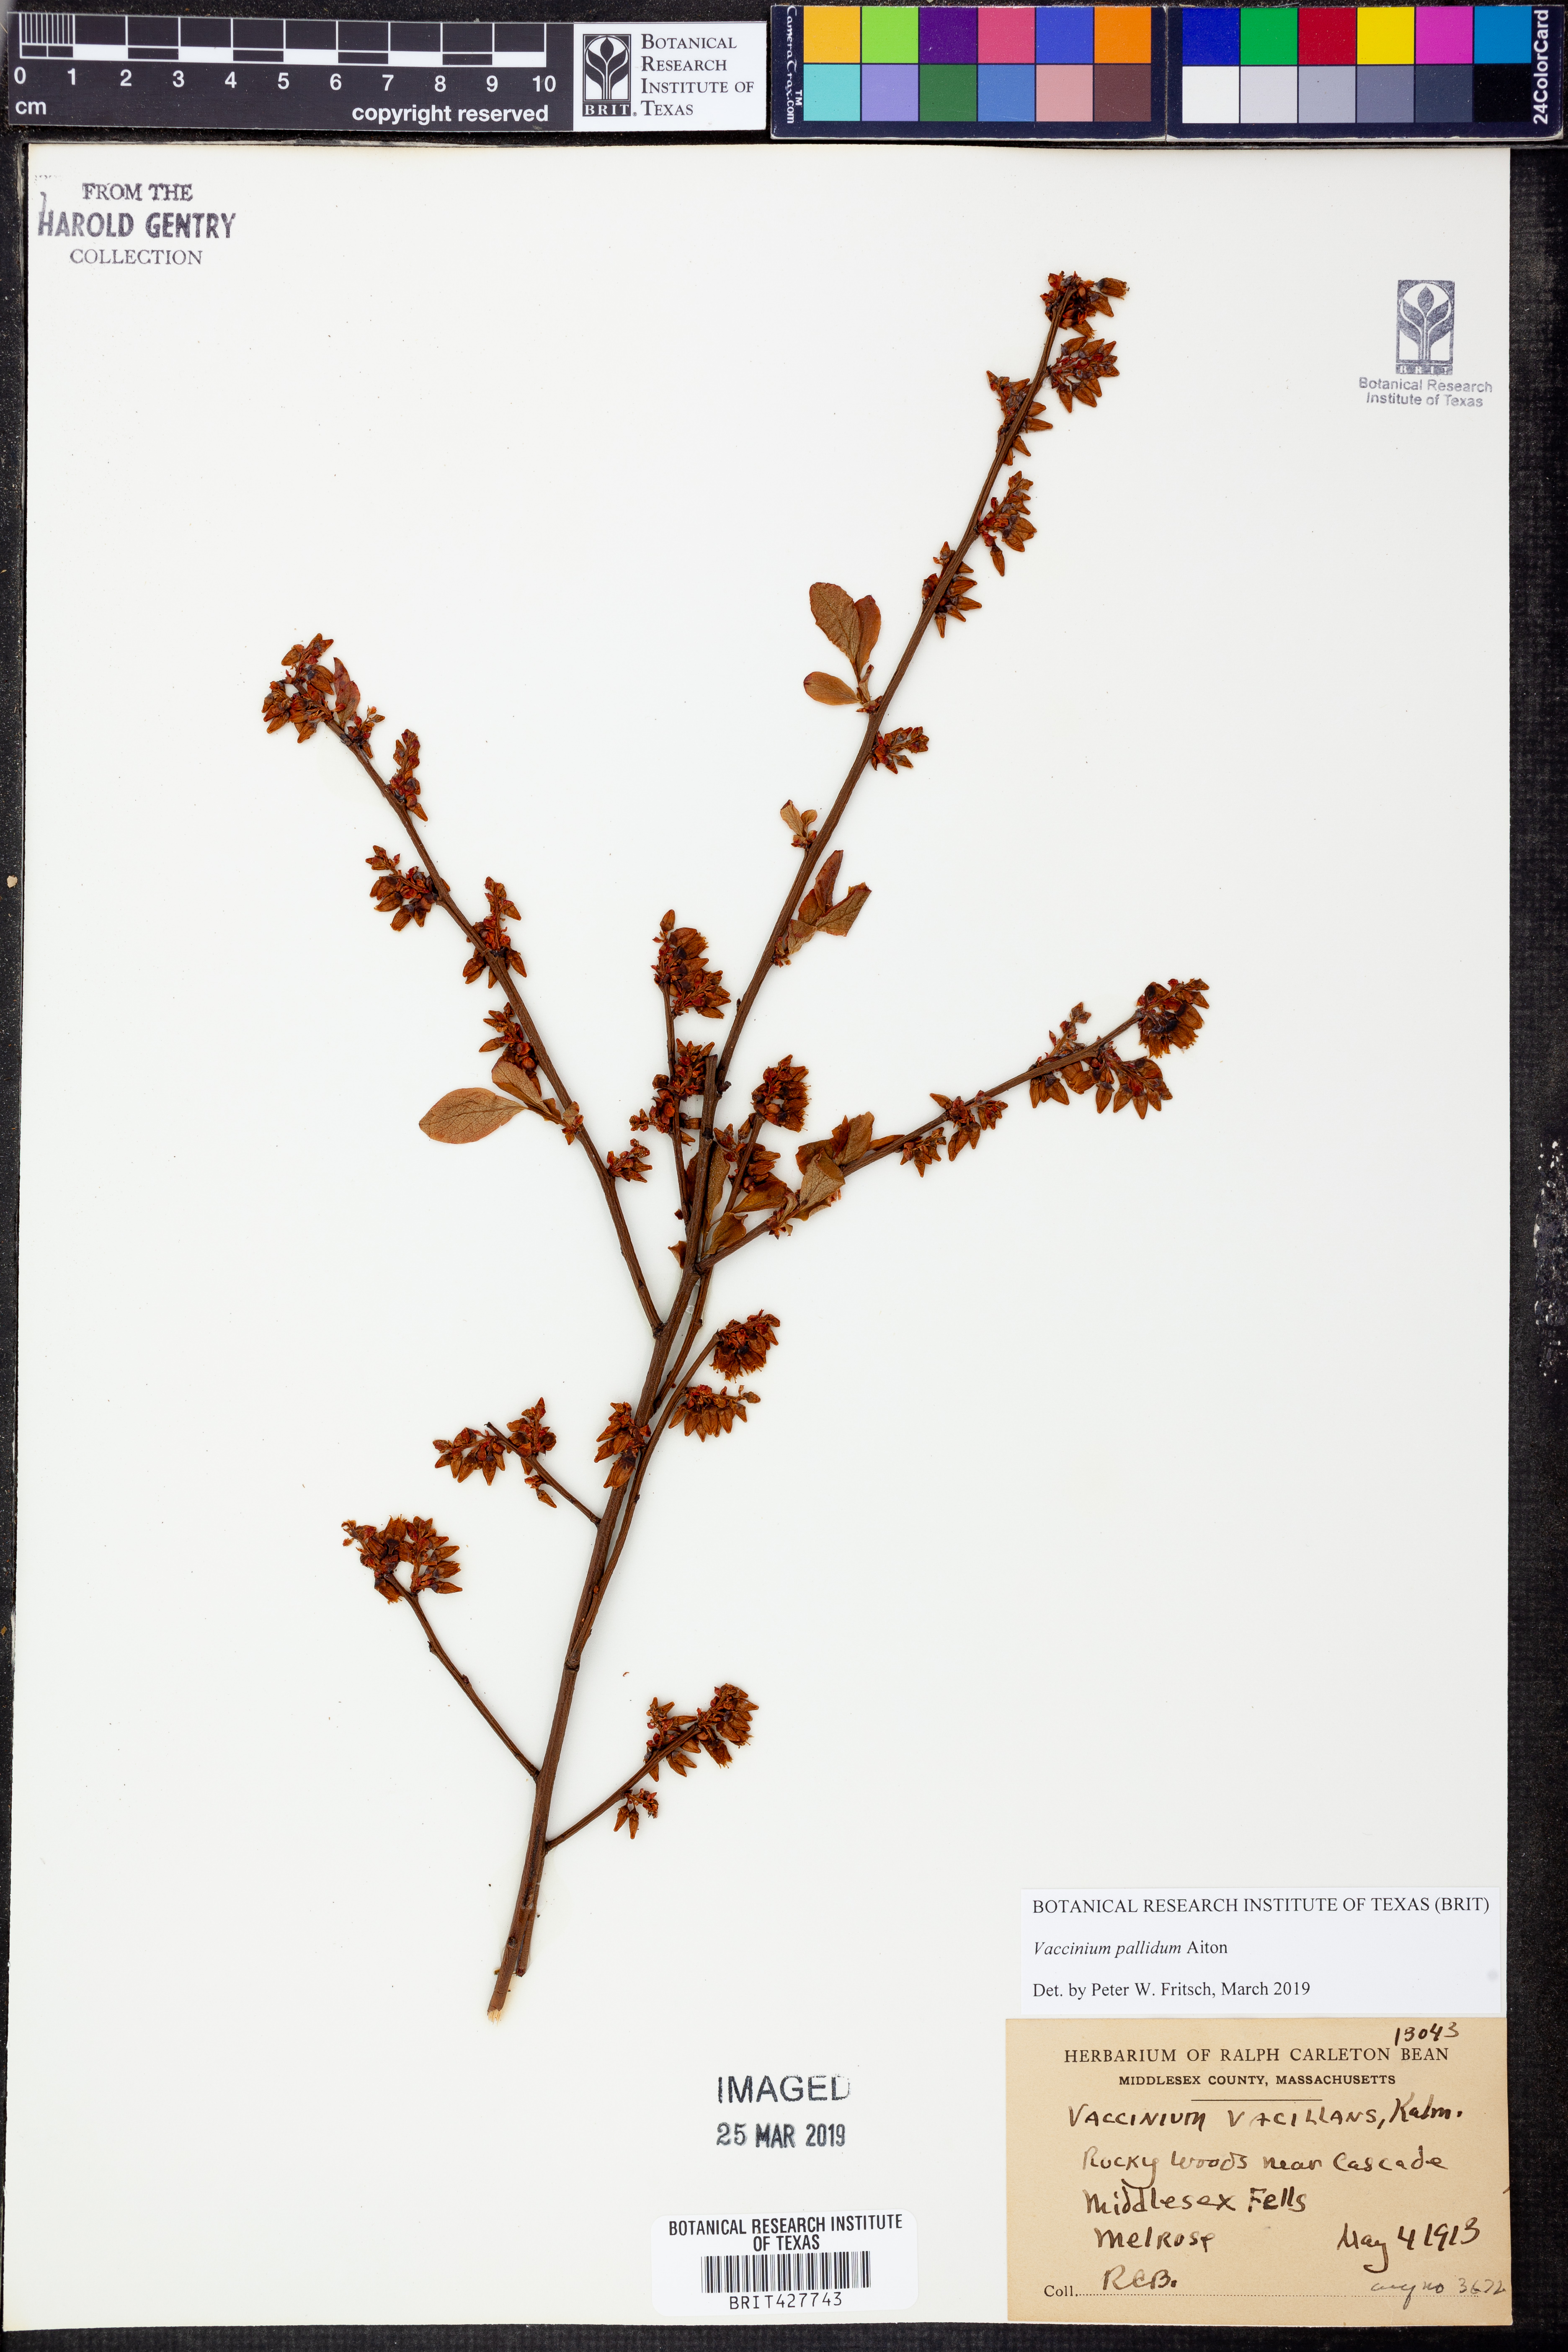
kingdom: Plantae
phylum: Tracheophyta
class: Magnoliopsida
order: Ericales
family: Ericaceae
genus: Vaccinium
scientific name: Vaccinium pallidum
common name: Blue ridge blueberry
